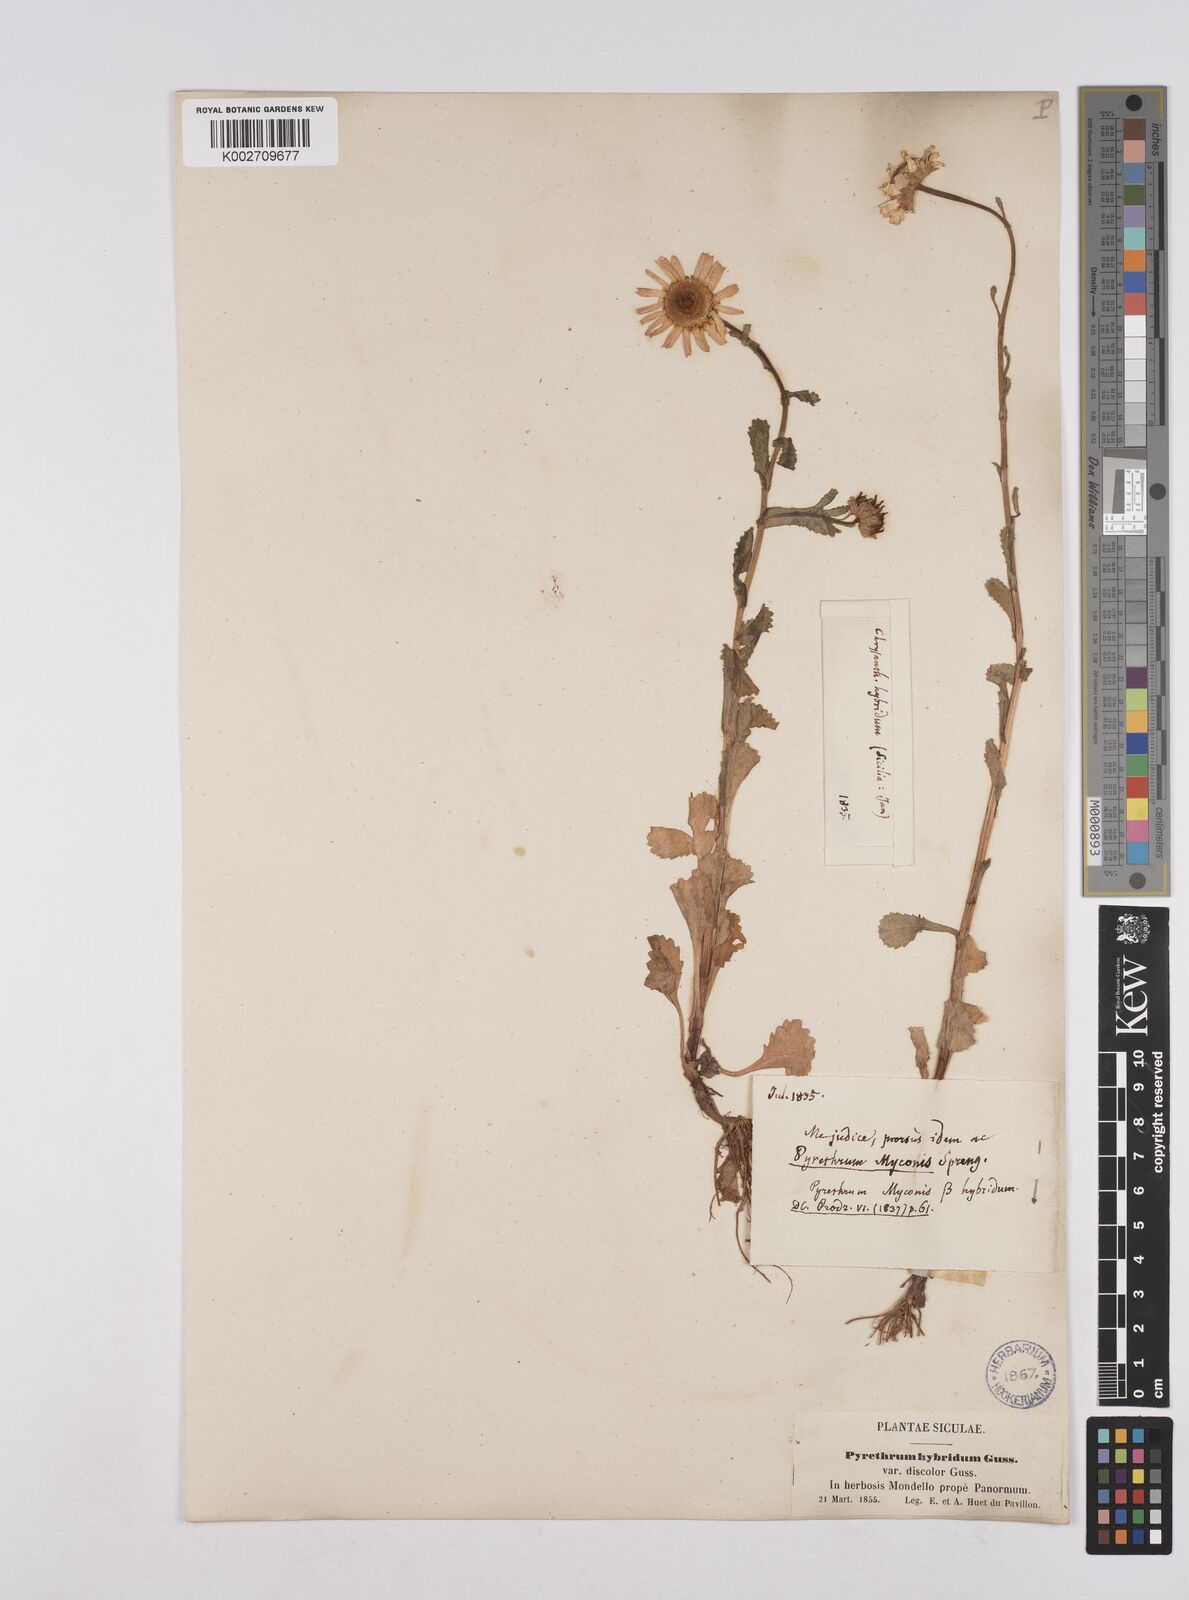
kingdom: Plantae
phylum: Tracheophyta
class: Magnoliopsida
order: Asterales
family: Asteraceae
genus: Coleostephus
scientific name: Coleostephus paludosus
